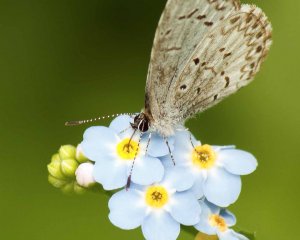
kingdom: Animalia
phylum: Arthropoda
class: Insecta
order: Lepidoptera
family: Lycaenidae
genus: Cyaniris
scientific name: Cyaniris neglecta
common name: Summer Azure
